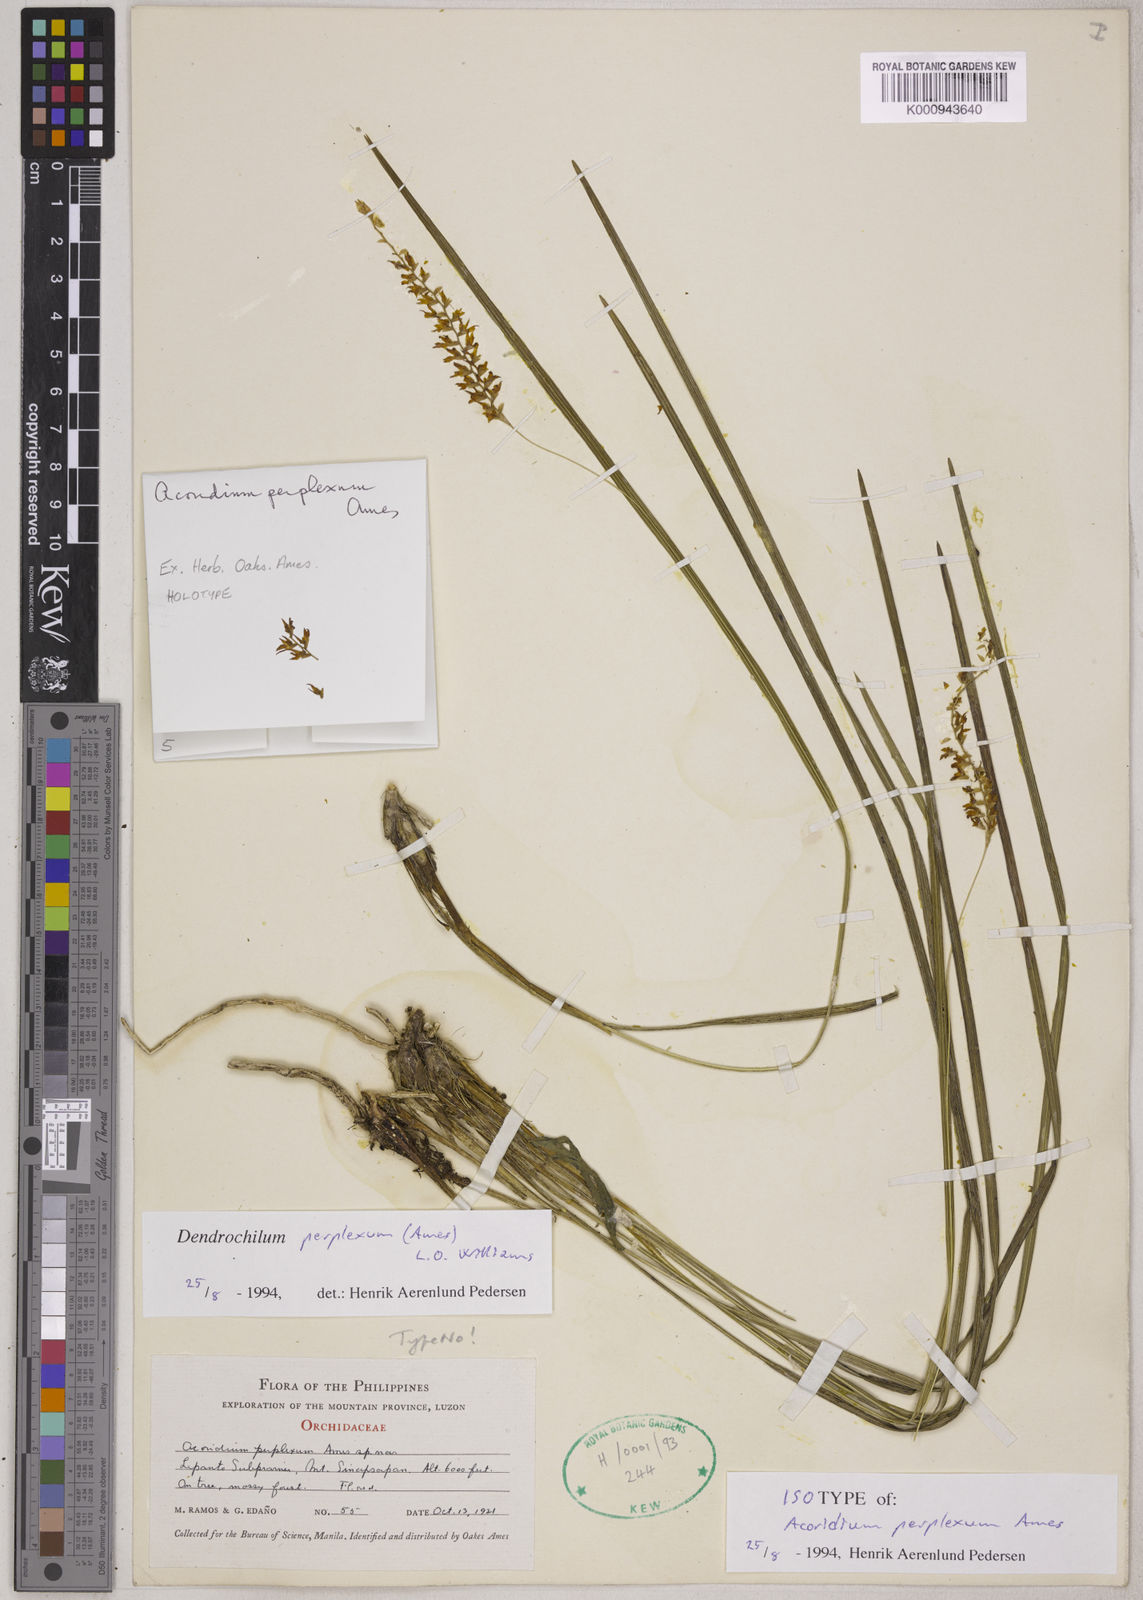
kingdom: Plantae
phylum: Tracheophyta
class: Liliopsida
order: Asparagales
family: Orchidaceae
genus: Coelogyne
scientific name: Coelogyne perplexa
